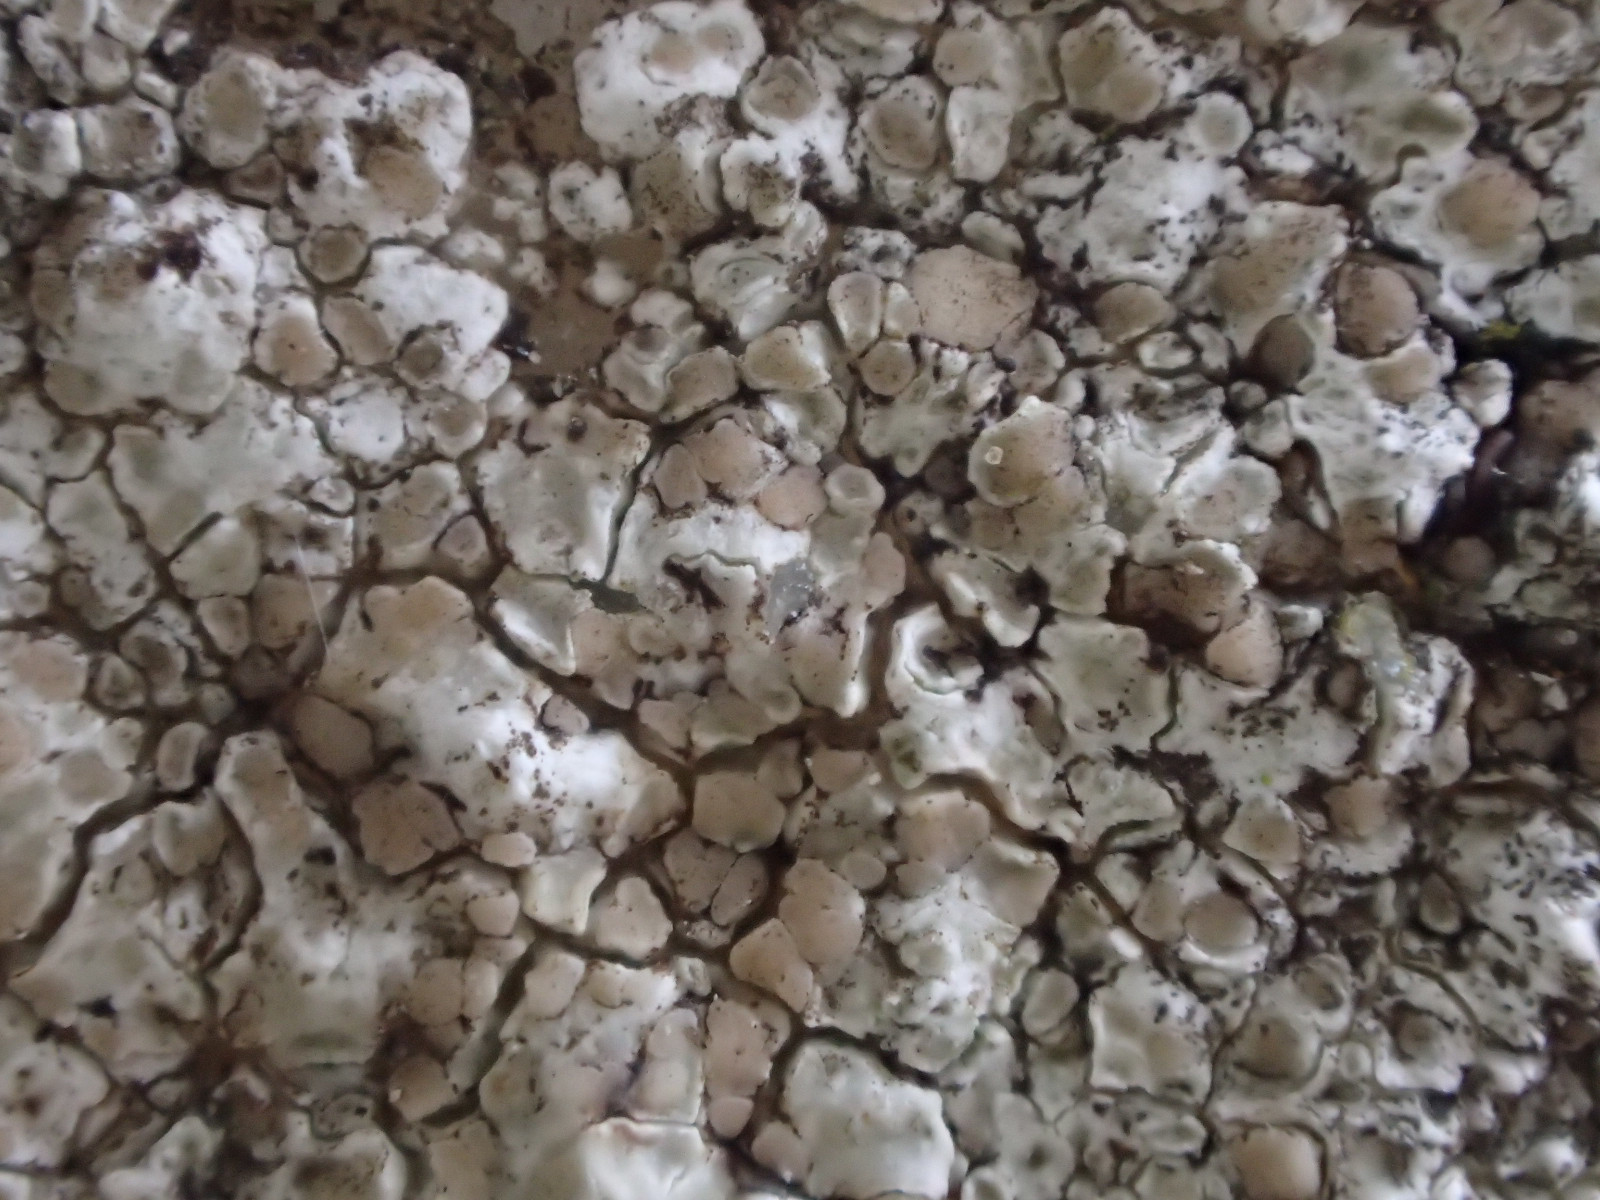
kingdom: Fungi
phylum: Ascomycota
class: Lecanoromycetes
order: Lecanorales
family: Lecanoraceae
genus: Polyozosia
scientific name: Polyozosia albescens
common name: cement-kantskivelav
